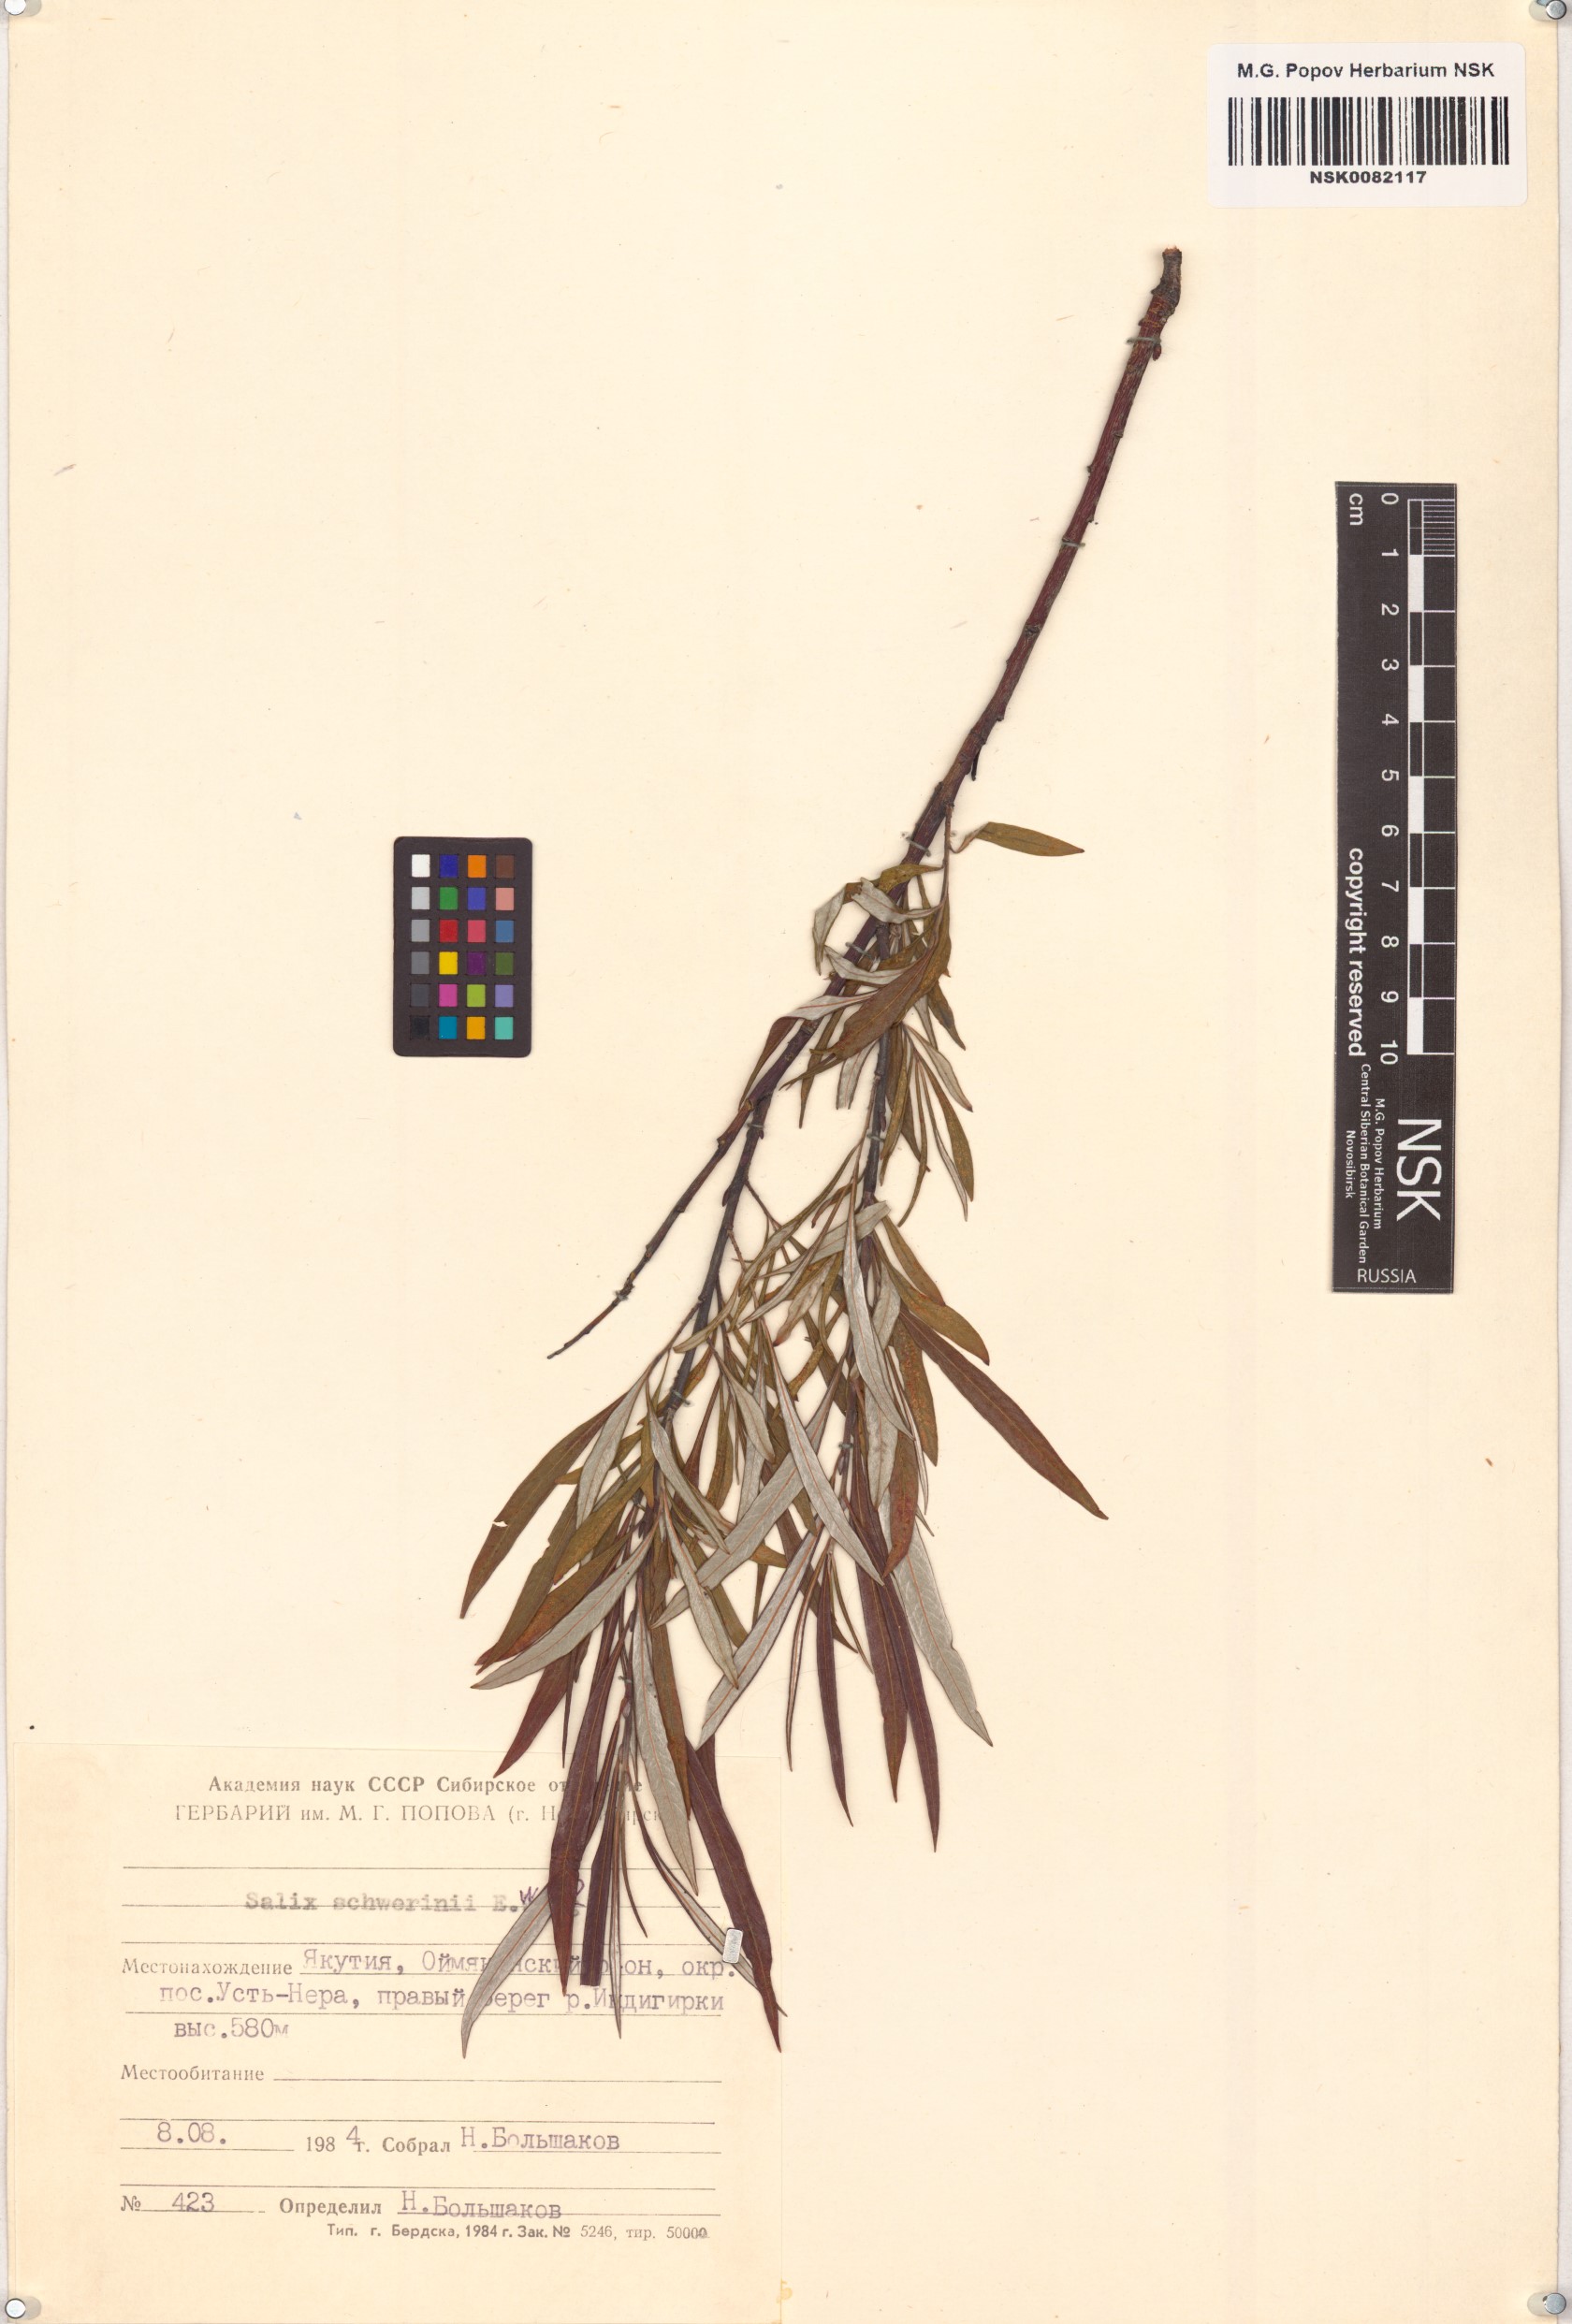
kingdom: Plantae
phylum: Tracheophyta
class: Magnoliopsida
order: Malpighiales
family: Salicaceae
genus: Salix
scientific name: Salix schwerinii
